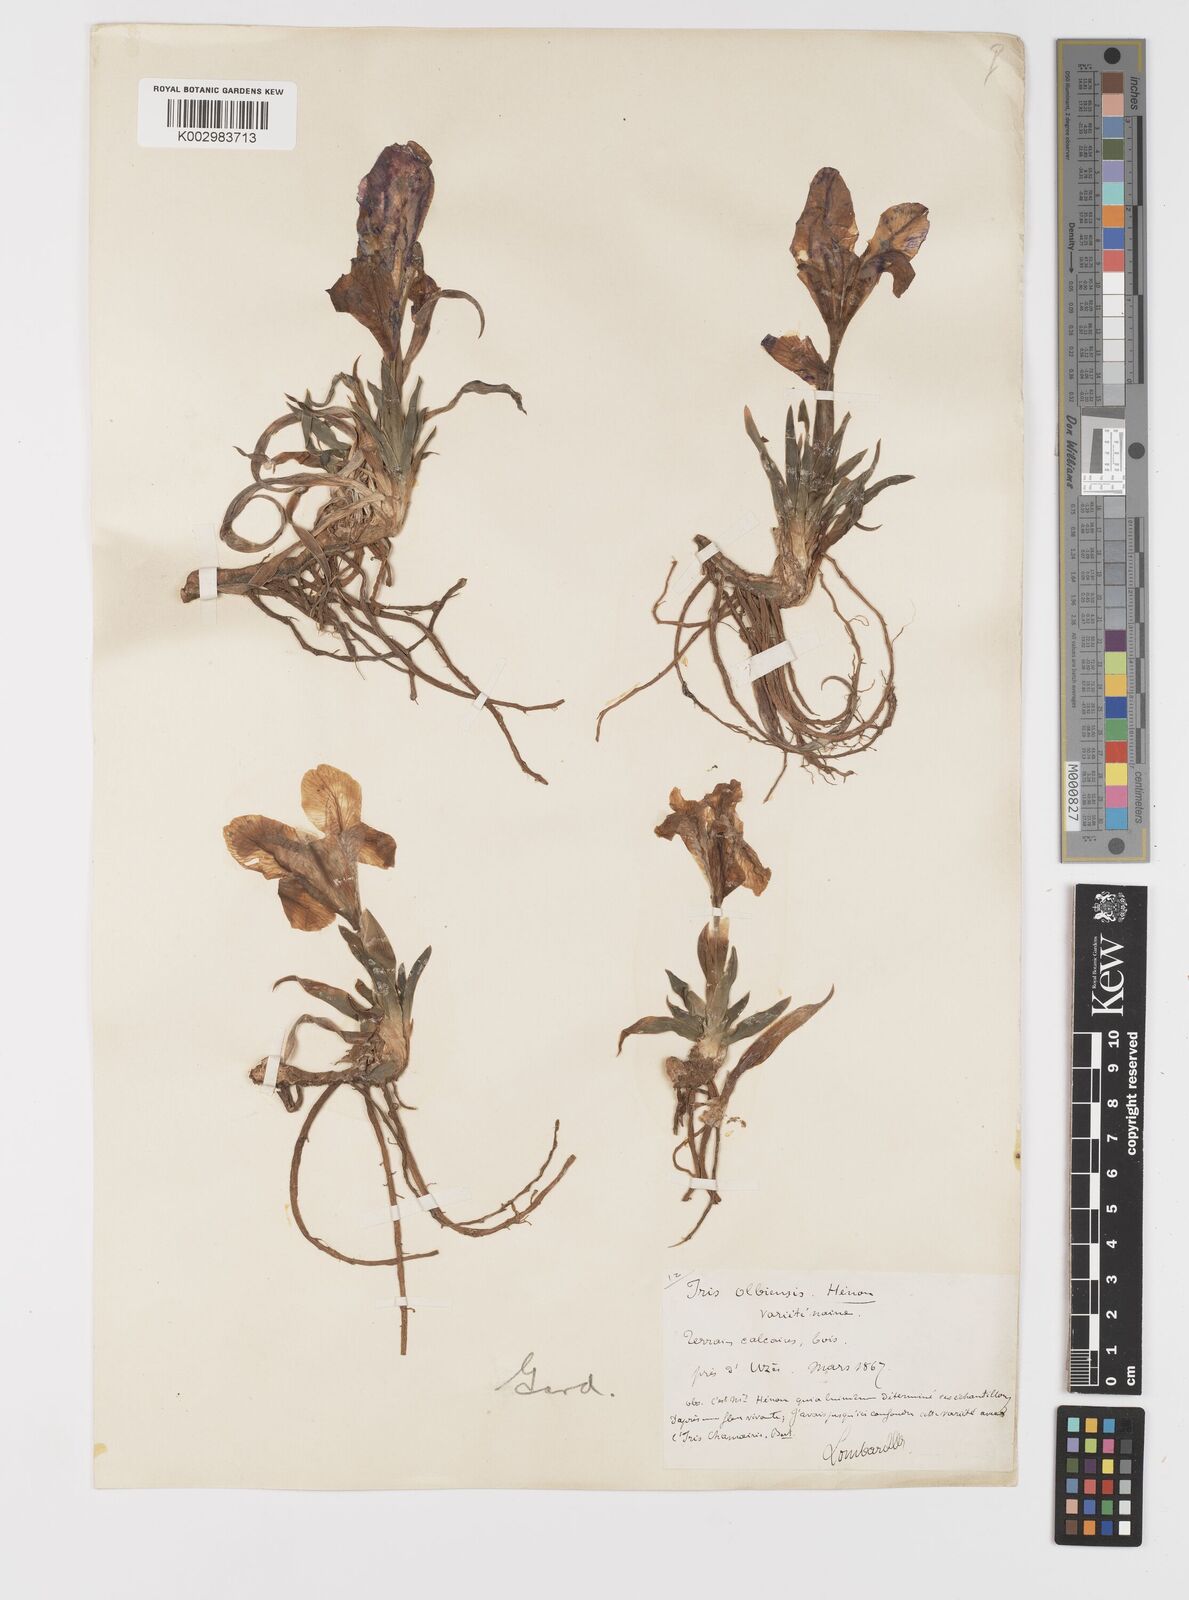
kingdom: Plantae
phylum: Tracheophyta
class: Liliopsida
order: Asparagales
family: Iridaceae
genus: Iris
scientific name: Iris lutescens
